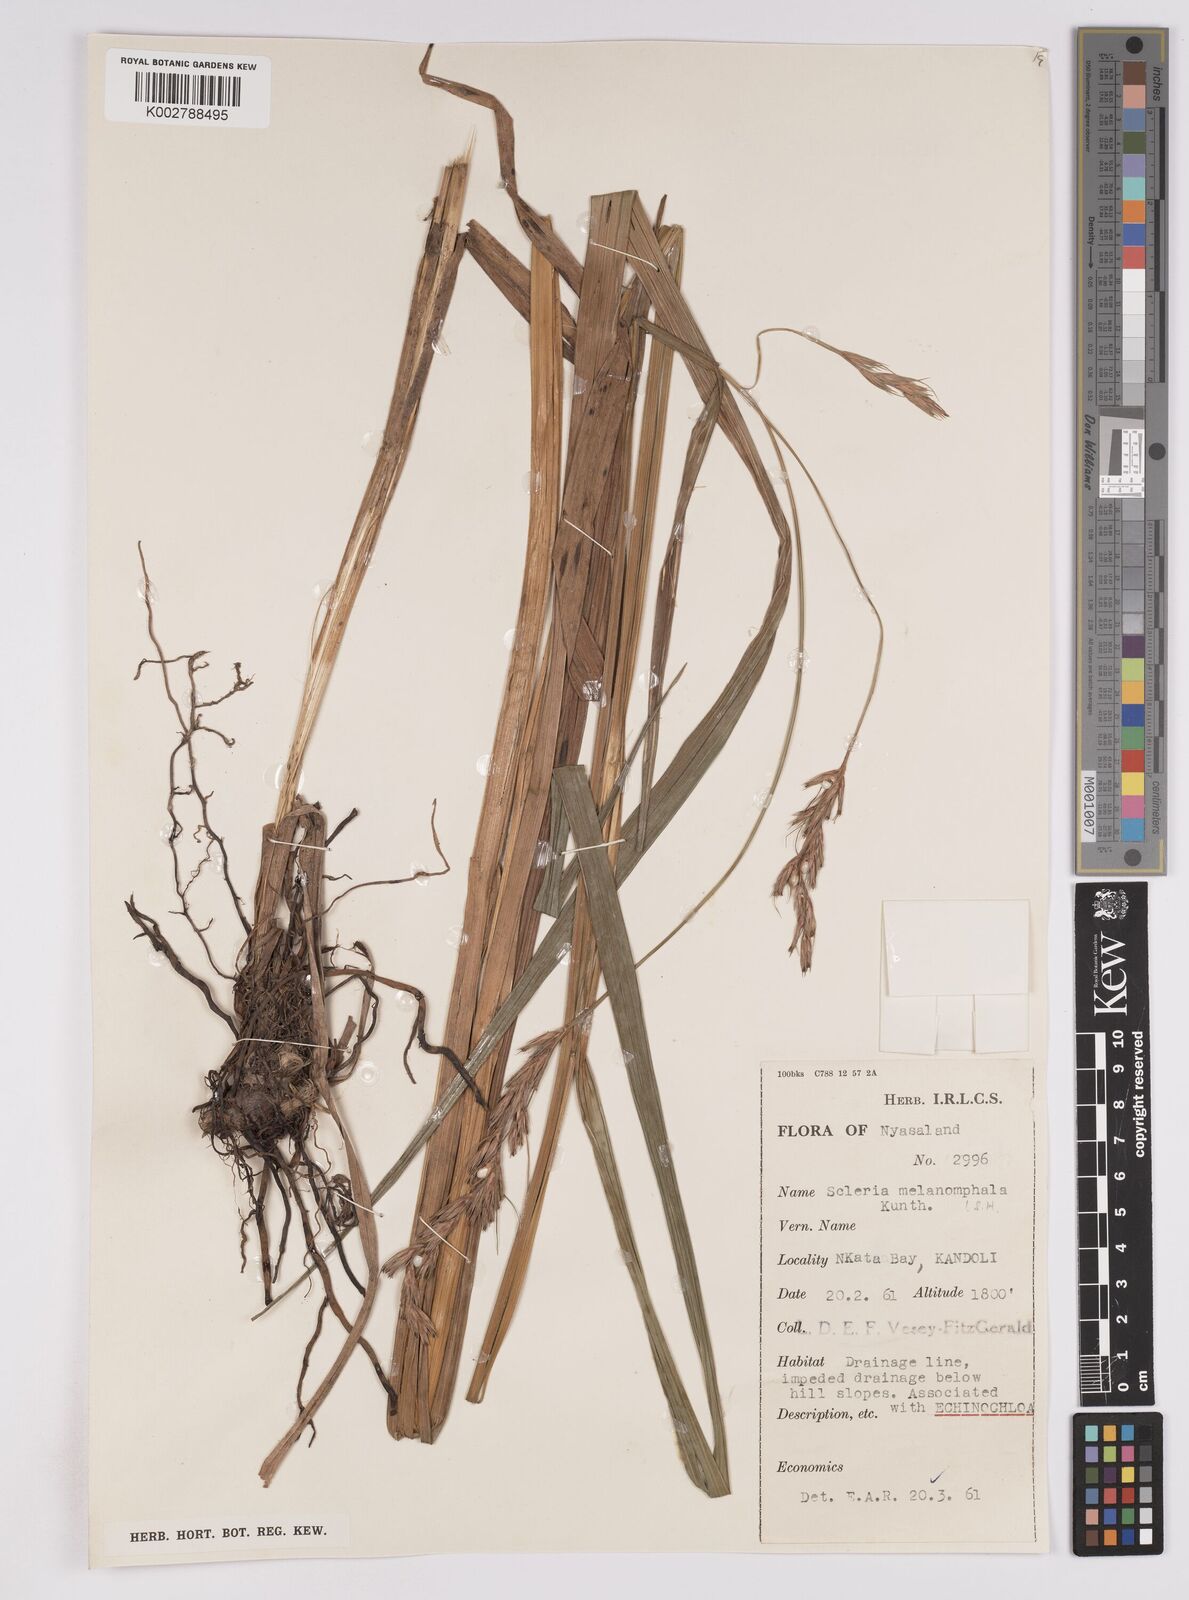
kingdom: Plantae
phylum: Tracheophyta
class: Liliopsida
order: Poales
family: Cyperaceae
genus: Scleria
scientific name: Scleria melanomphala
